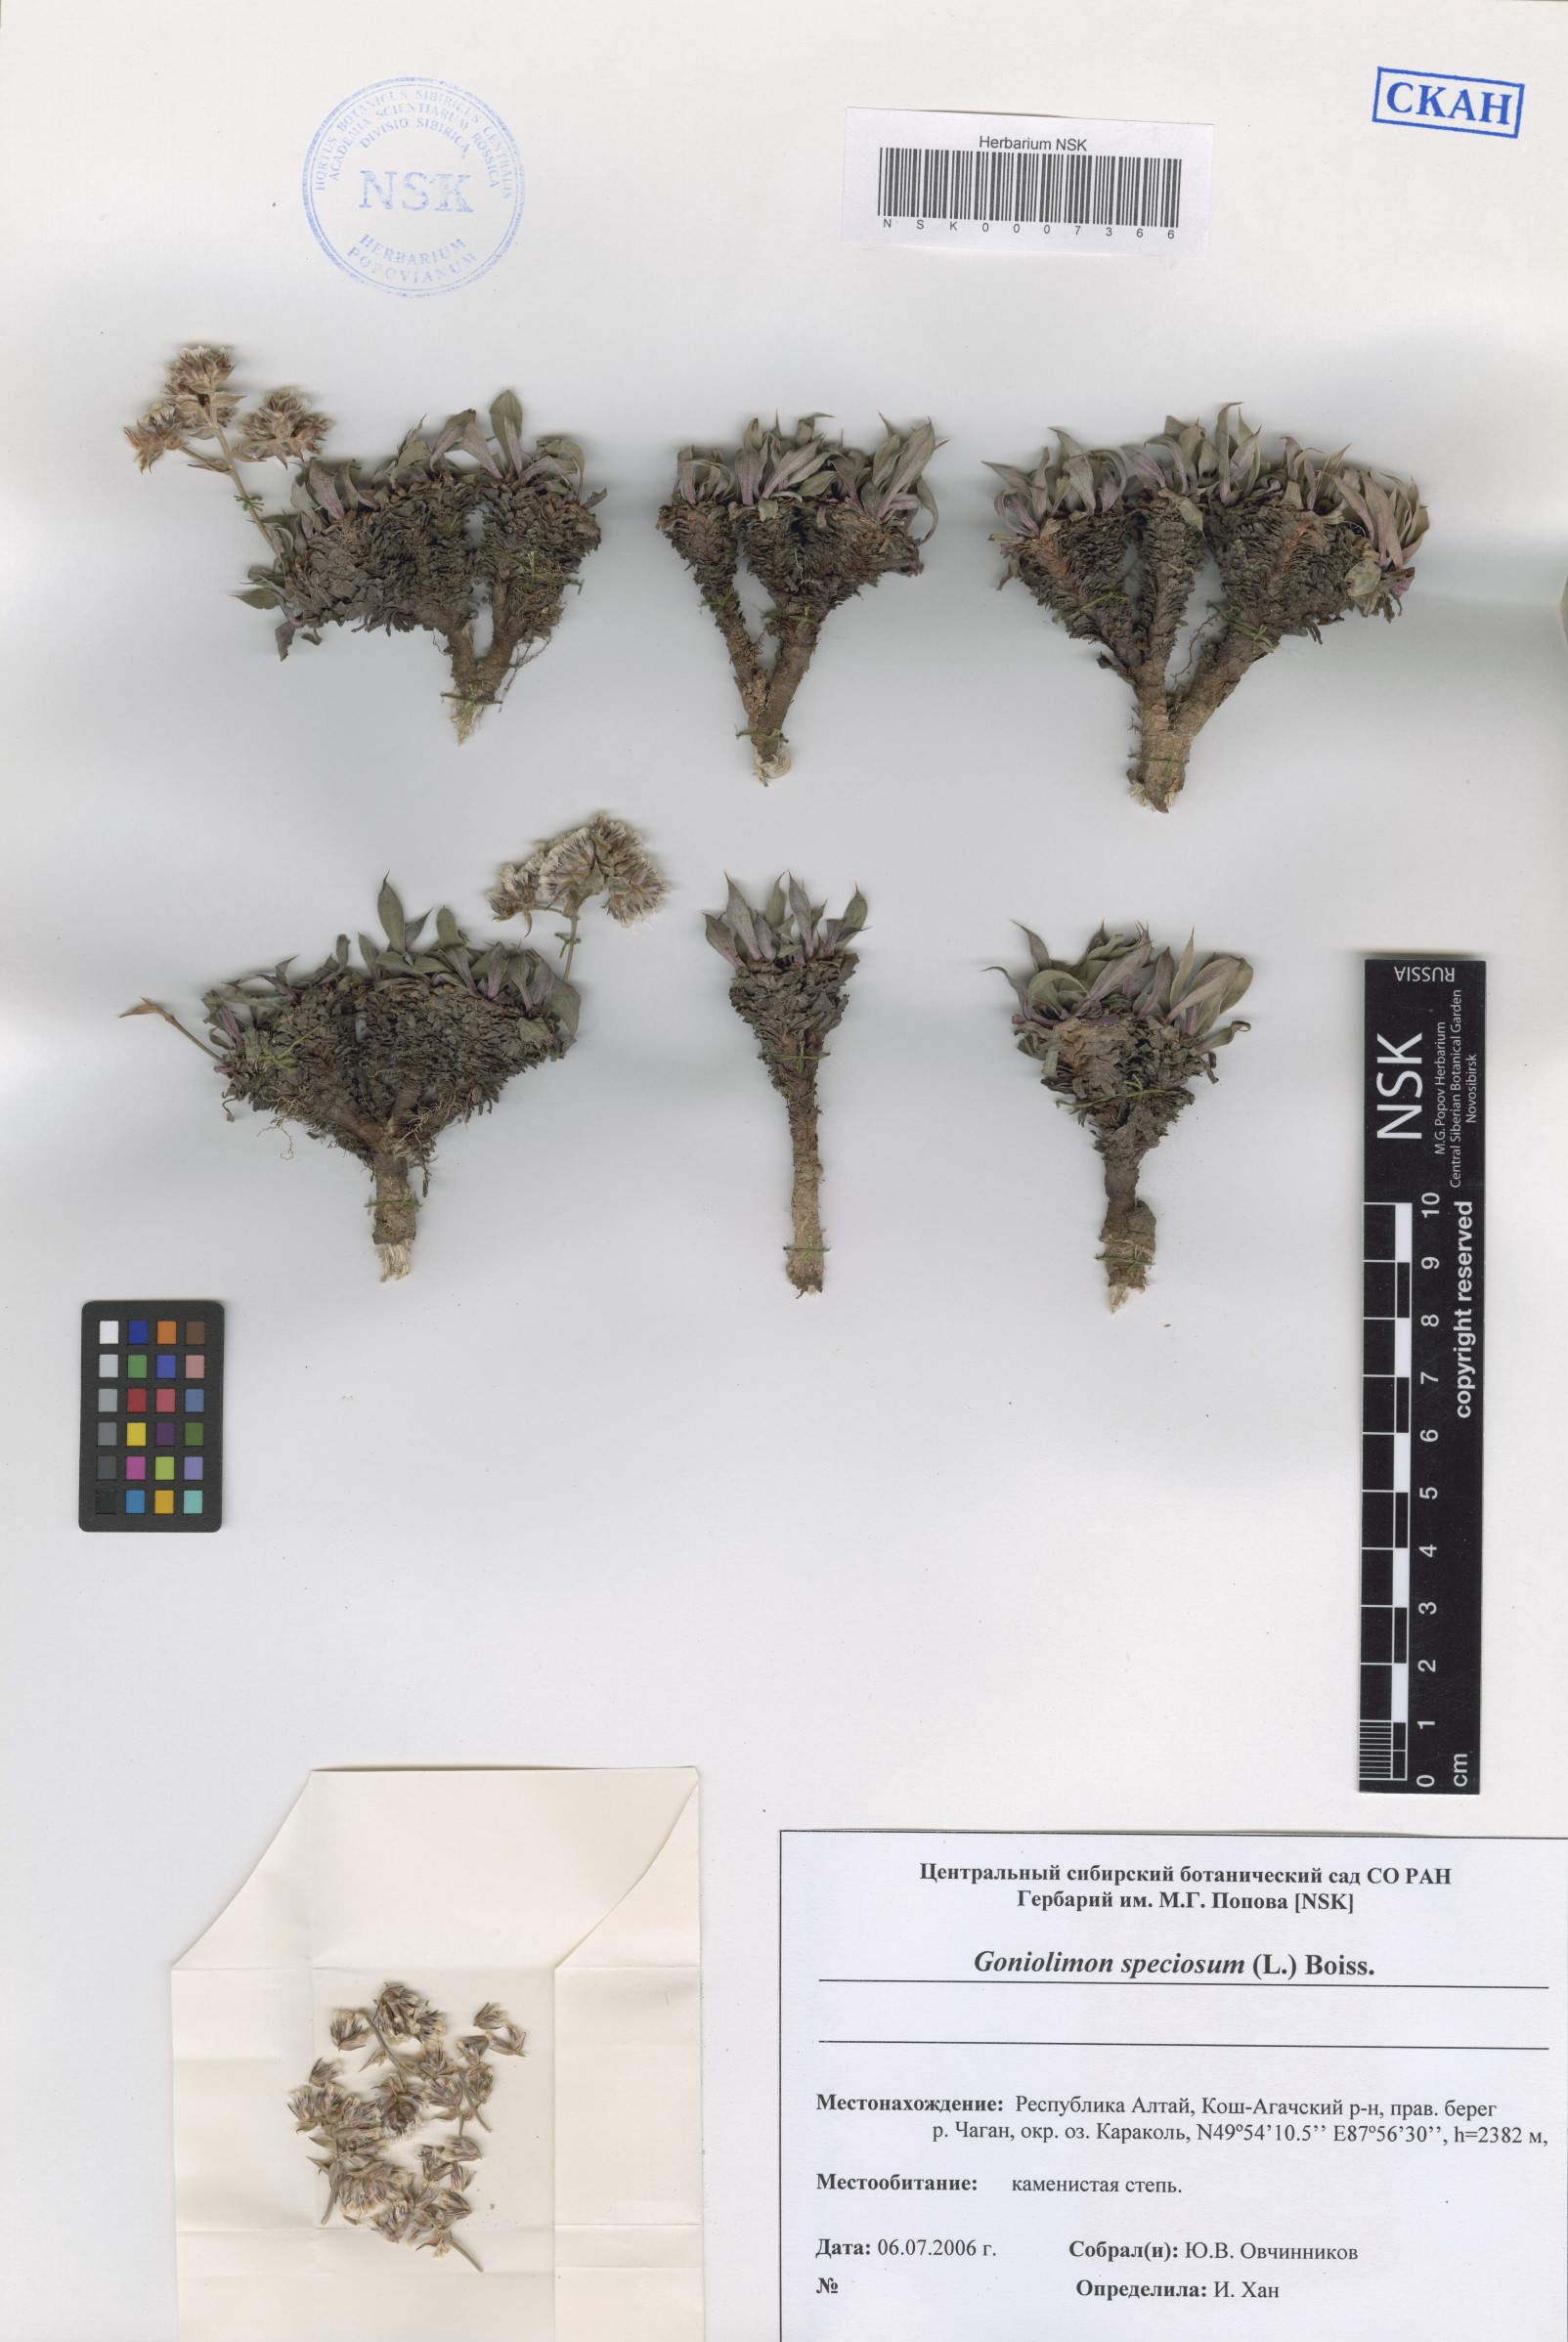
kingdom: Plantae
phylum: Tracheophyta
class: Magnoliopsida
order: Caryophyllales
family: Plumbaginaceae
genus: Goniolimon
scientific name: Goniolimon speciosum
